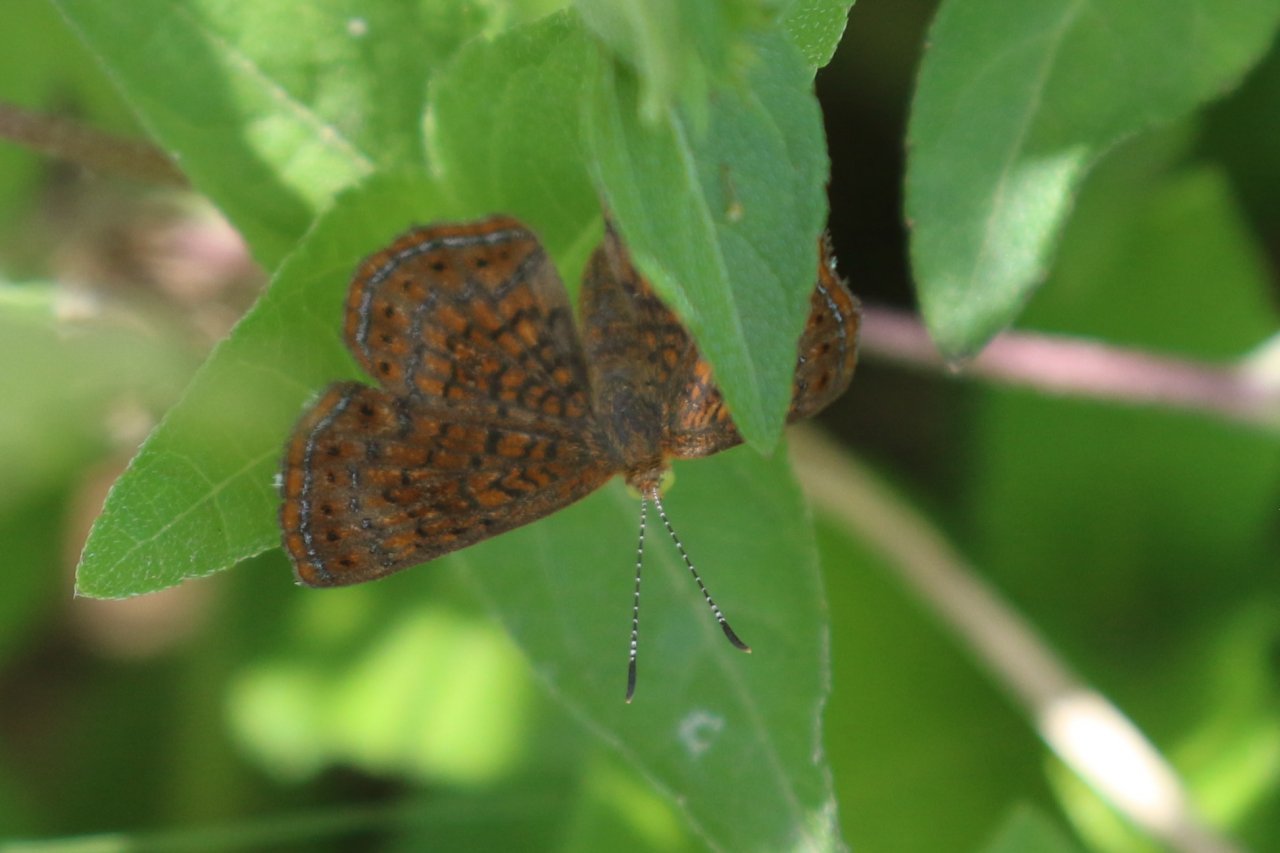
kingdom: Animalia
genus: Calephelis
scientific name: Calephelis perditalis
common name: Rounded Metalmark
